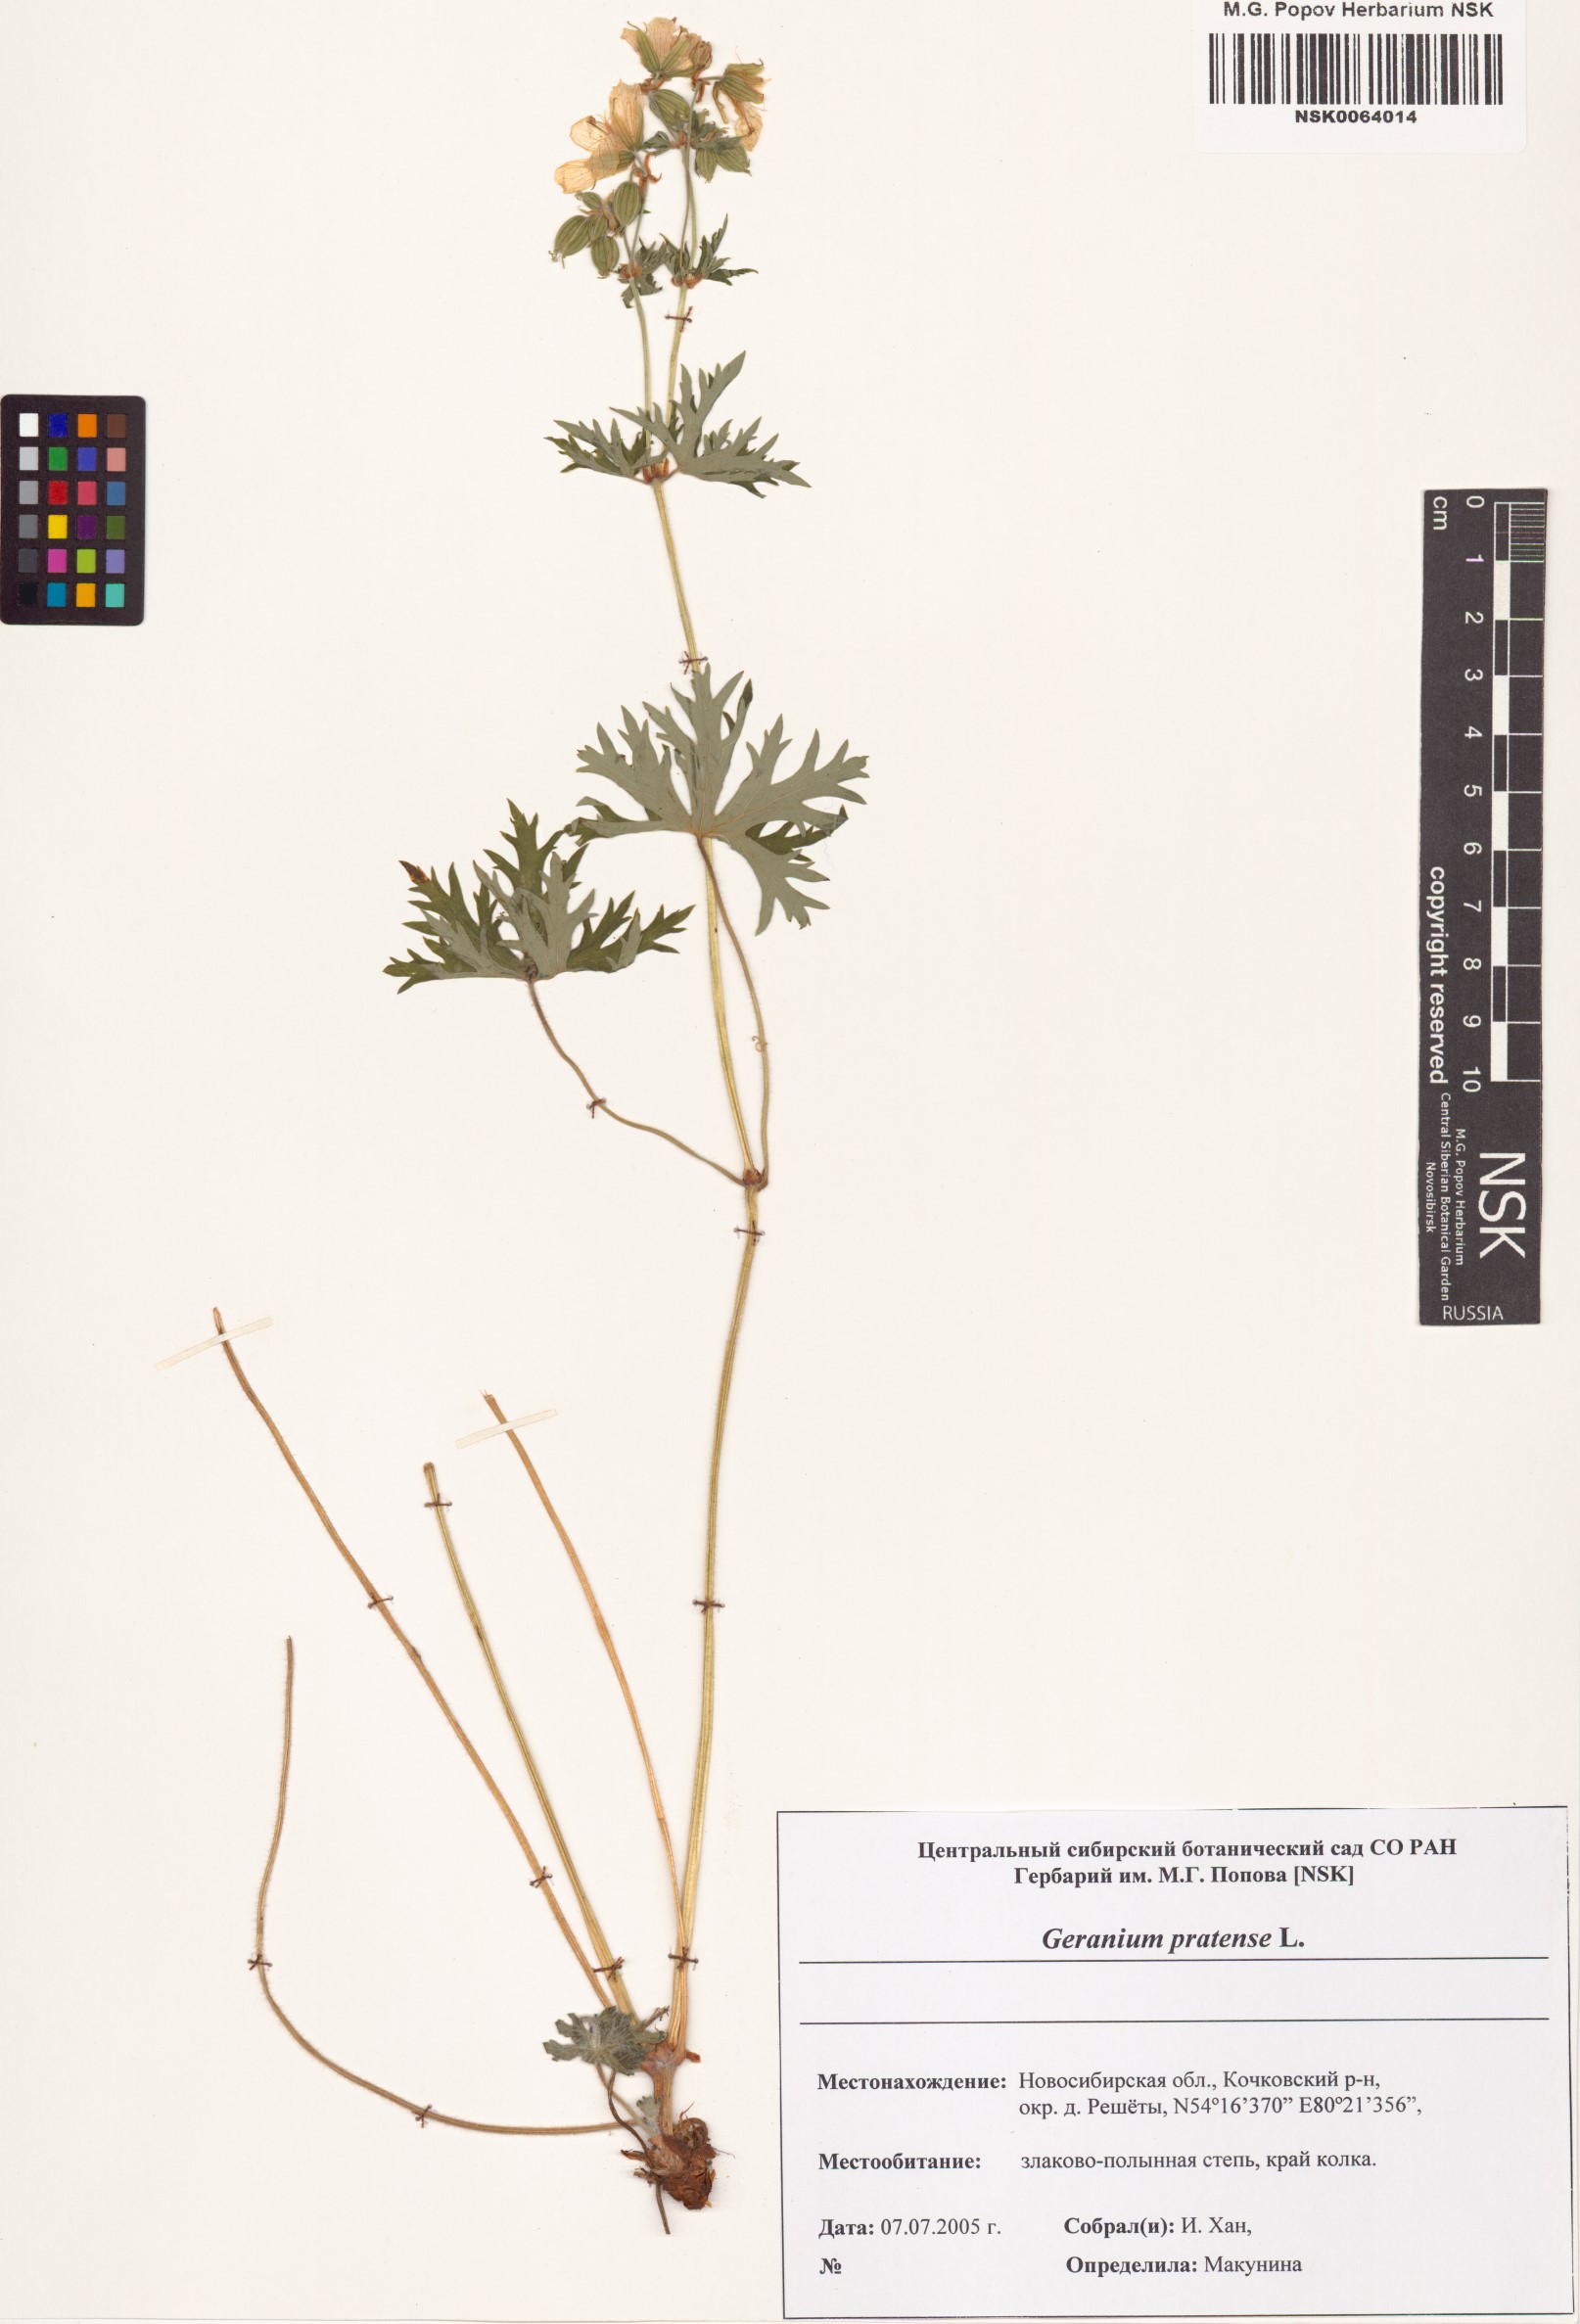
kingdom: Plantae
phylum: Tracheophyta
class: Magnoliopsida
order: Geraniales
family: Geraniaceae
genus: Geranium
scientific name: Geranium pratense
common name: Meadow crane's-bill
